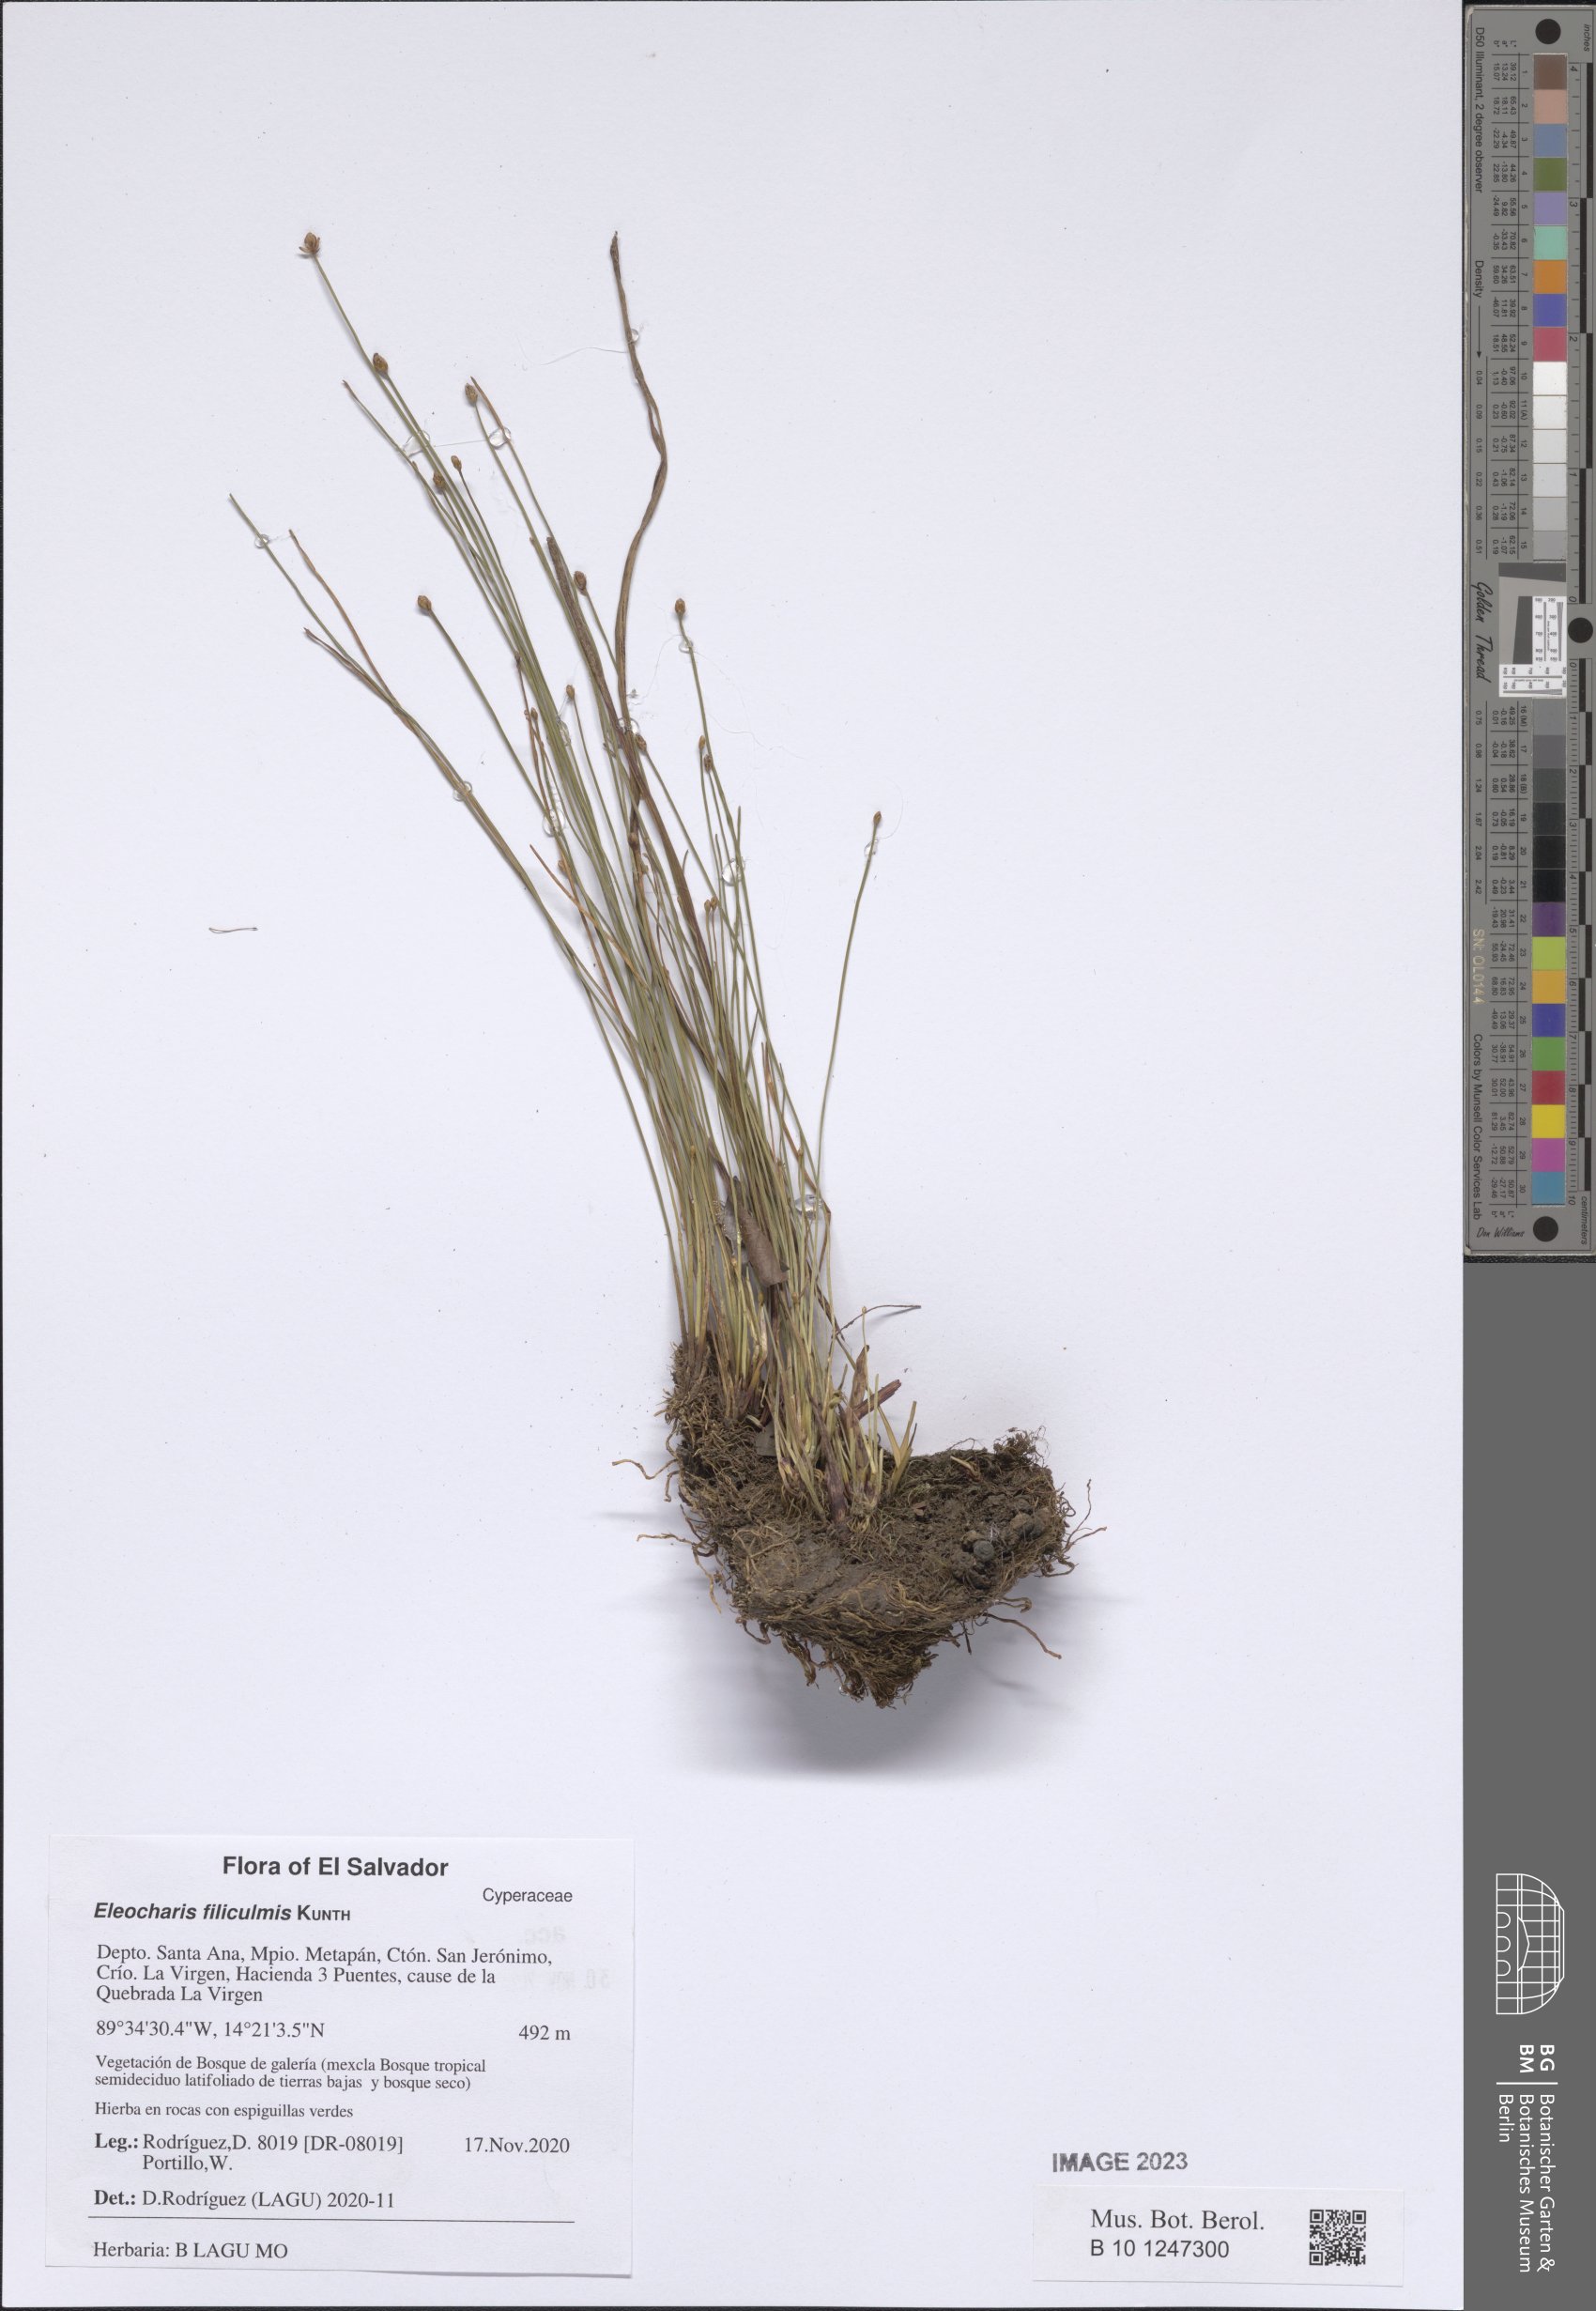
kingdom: Plantae
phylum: Tracheophyta
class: Liliopsida
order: Poales
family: Cyperaceae
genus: Eleocharis
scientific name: Eleocharis filiculmis
